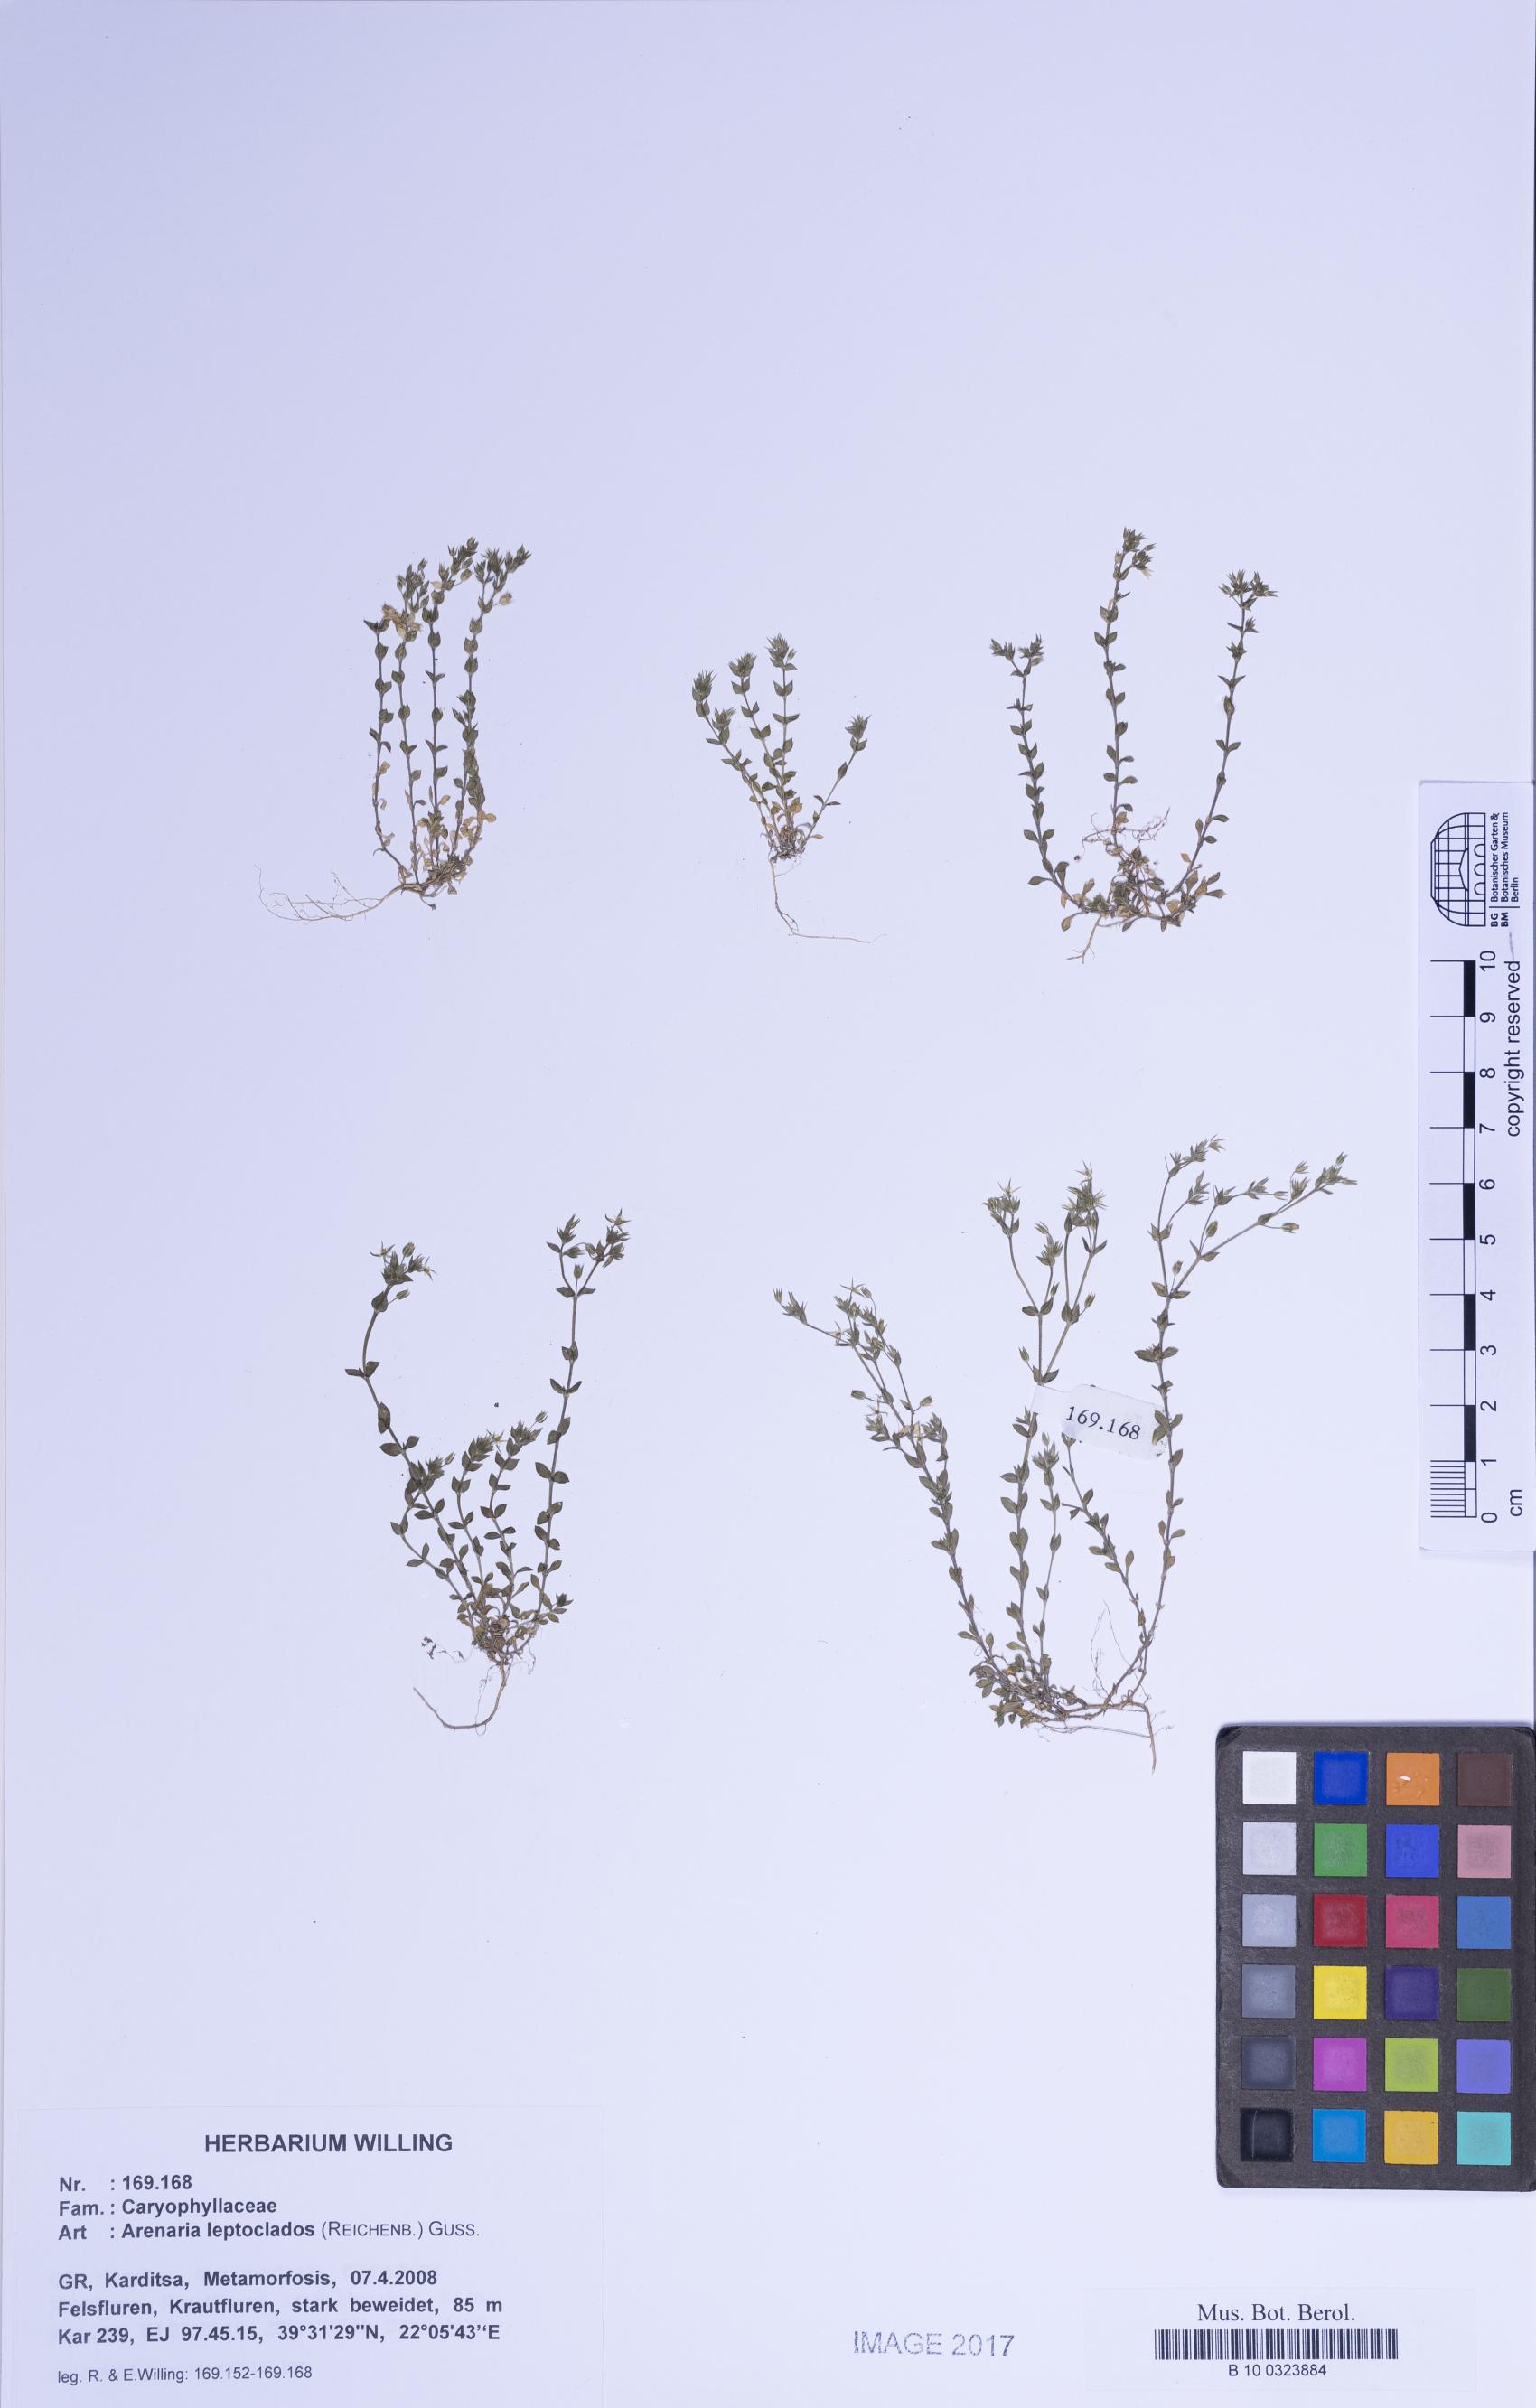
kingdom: Plantae
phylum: Tracheophyta
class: Magnoliopsida
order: Caryophyllales
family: Caryophyllaceae
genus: Arenaria
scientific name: Arenaria leptoclados
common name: Thyme-leaved sandwort
